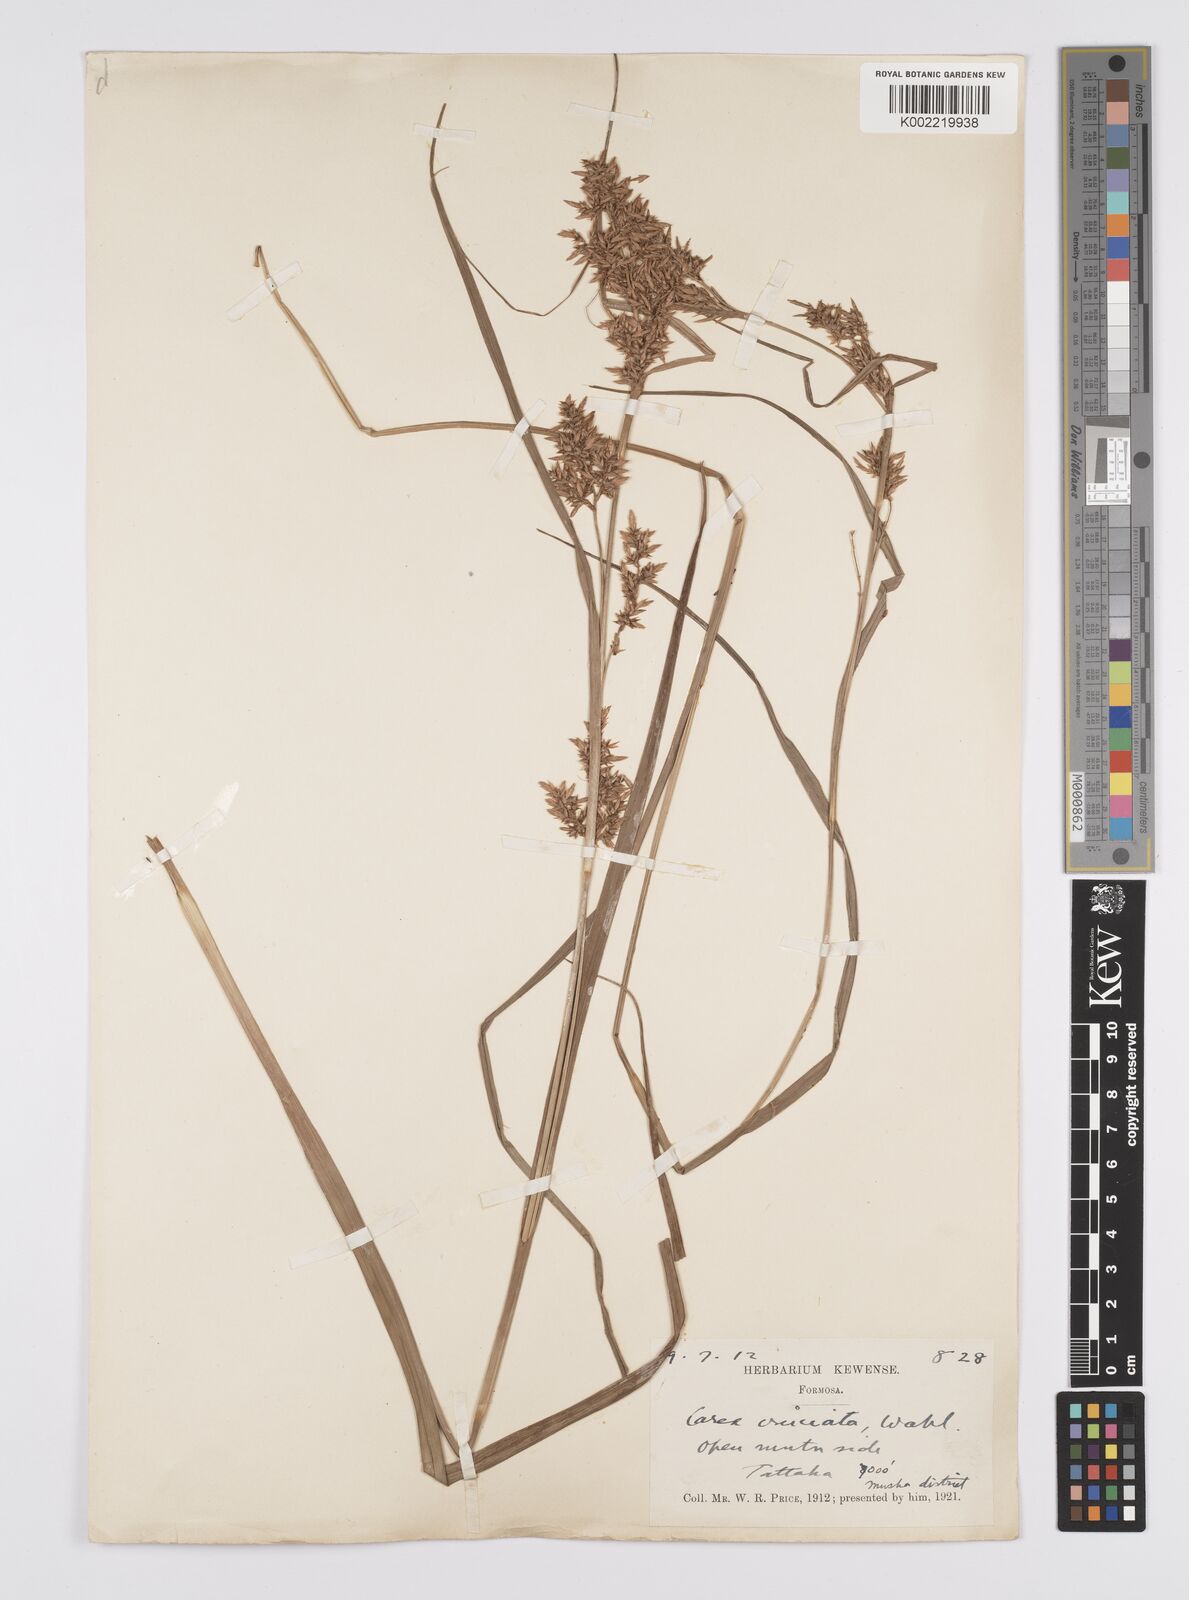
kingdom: Plantae
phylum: Tracheophyta
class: Liliopsida
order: Poales
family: Cyperaceae
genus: Carex
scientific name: Carex cruciata
